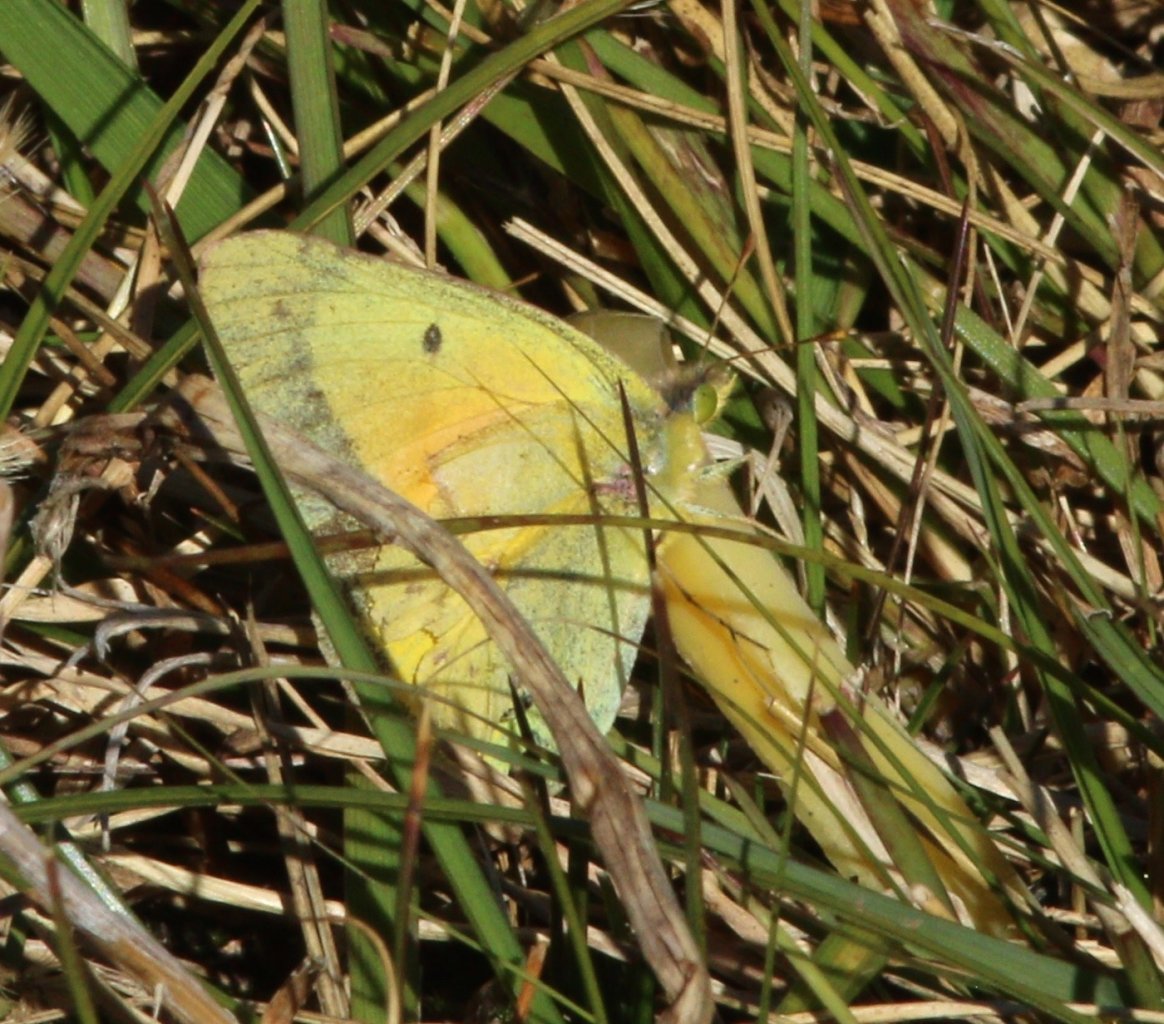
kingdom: Animalia
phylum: Arthropoda
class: Insecta
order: Lepidoptera
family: Pieridae
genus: Colias
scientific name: Colias eurytheme
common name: Orange Sulphur
